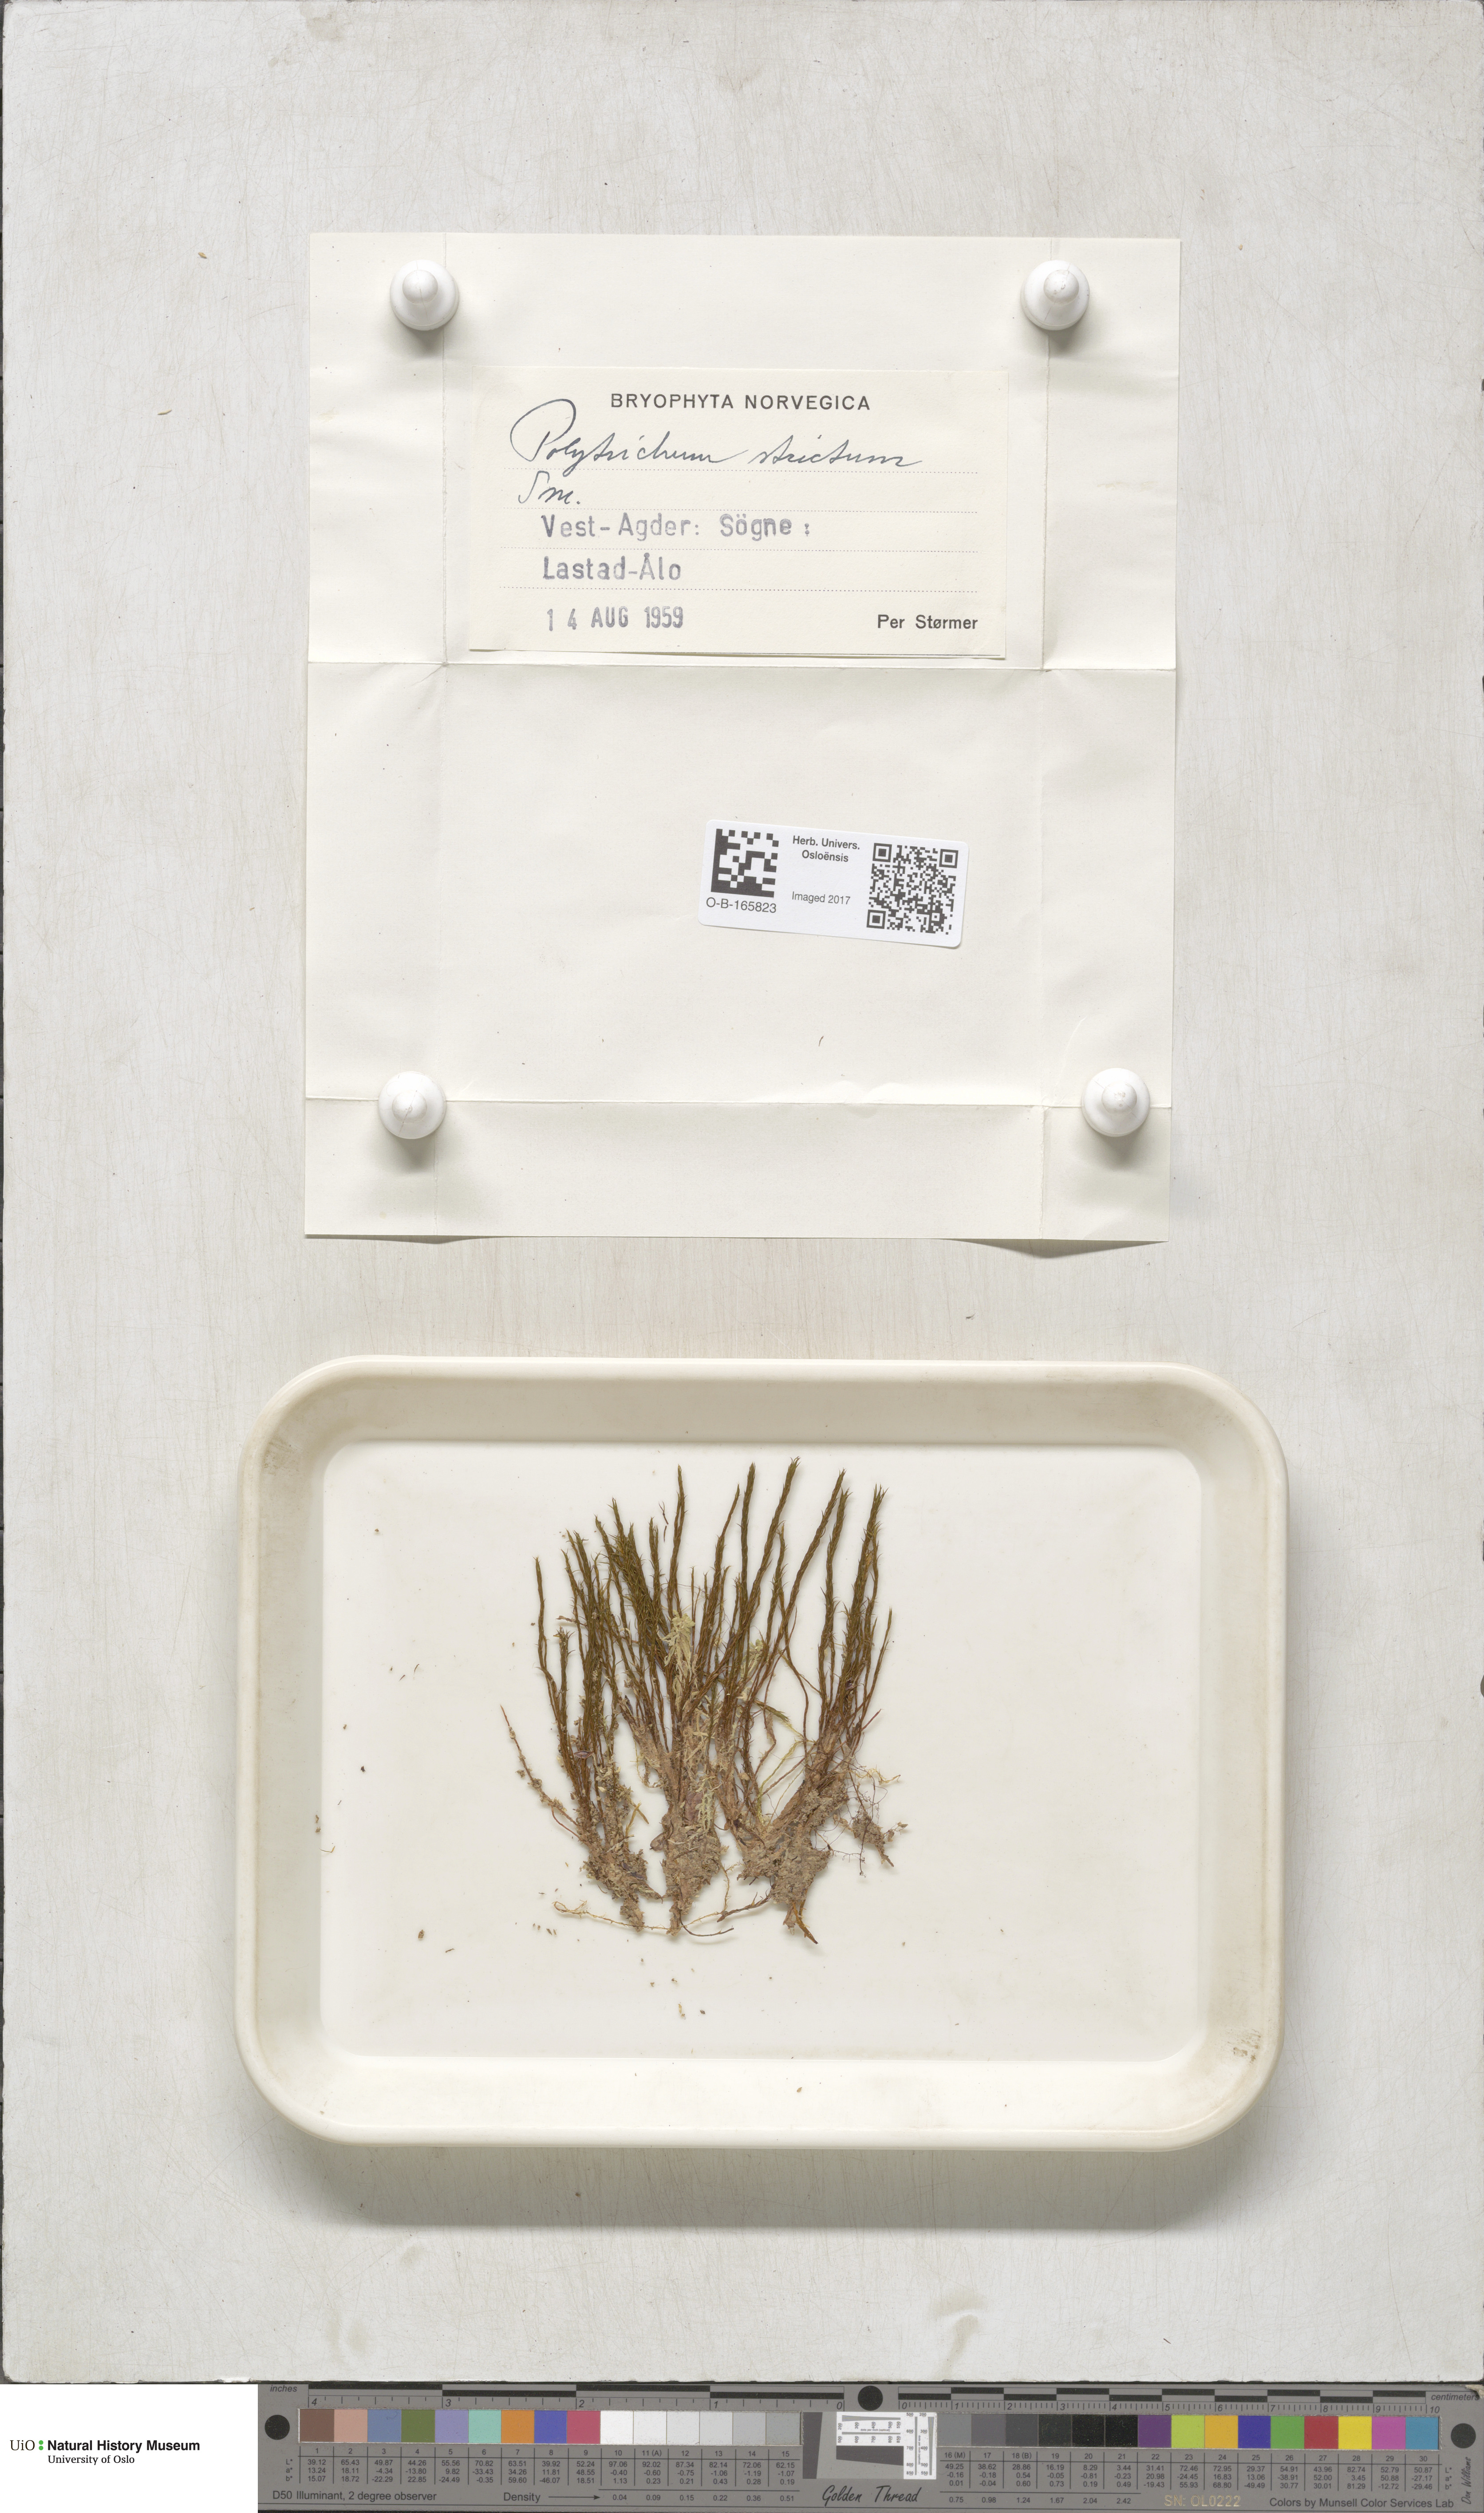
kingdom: Plantae
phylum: Bryophyta
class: Polytrichopsida
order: Polytrichales
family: Polytrichaceae
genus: Polytrichum
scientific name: Polytrichum strictum
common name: Bog haircap moss
